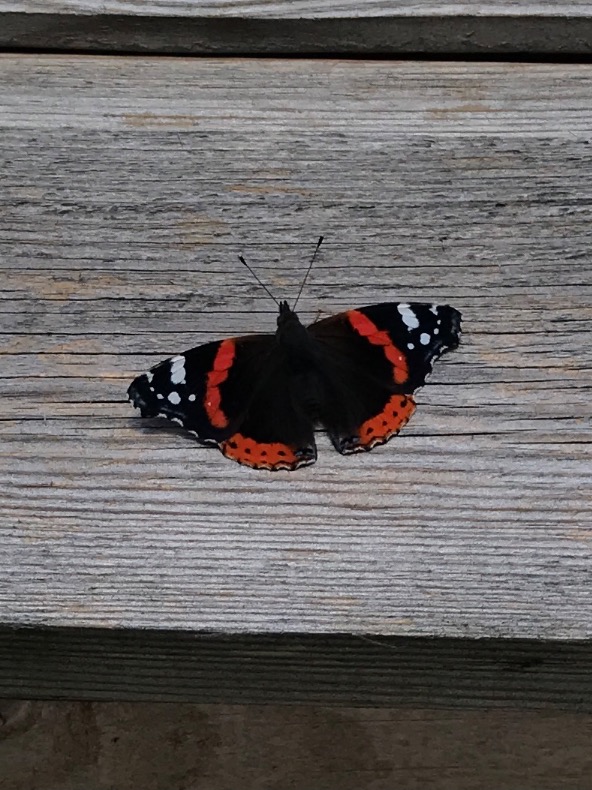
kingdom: Animalia
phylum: Arthropoda
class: Insecta
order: Lepidoptera
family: Nymphalidae
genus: Vanessa
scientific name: Vanessa atalanta
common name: Admiral
